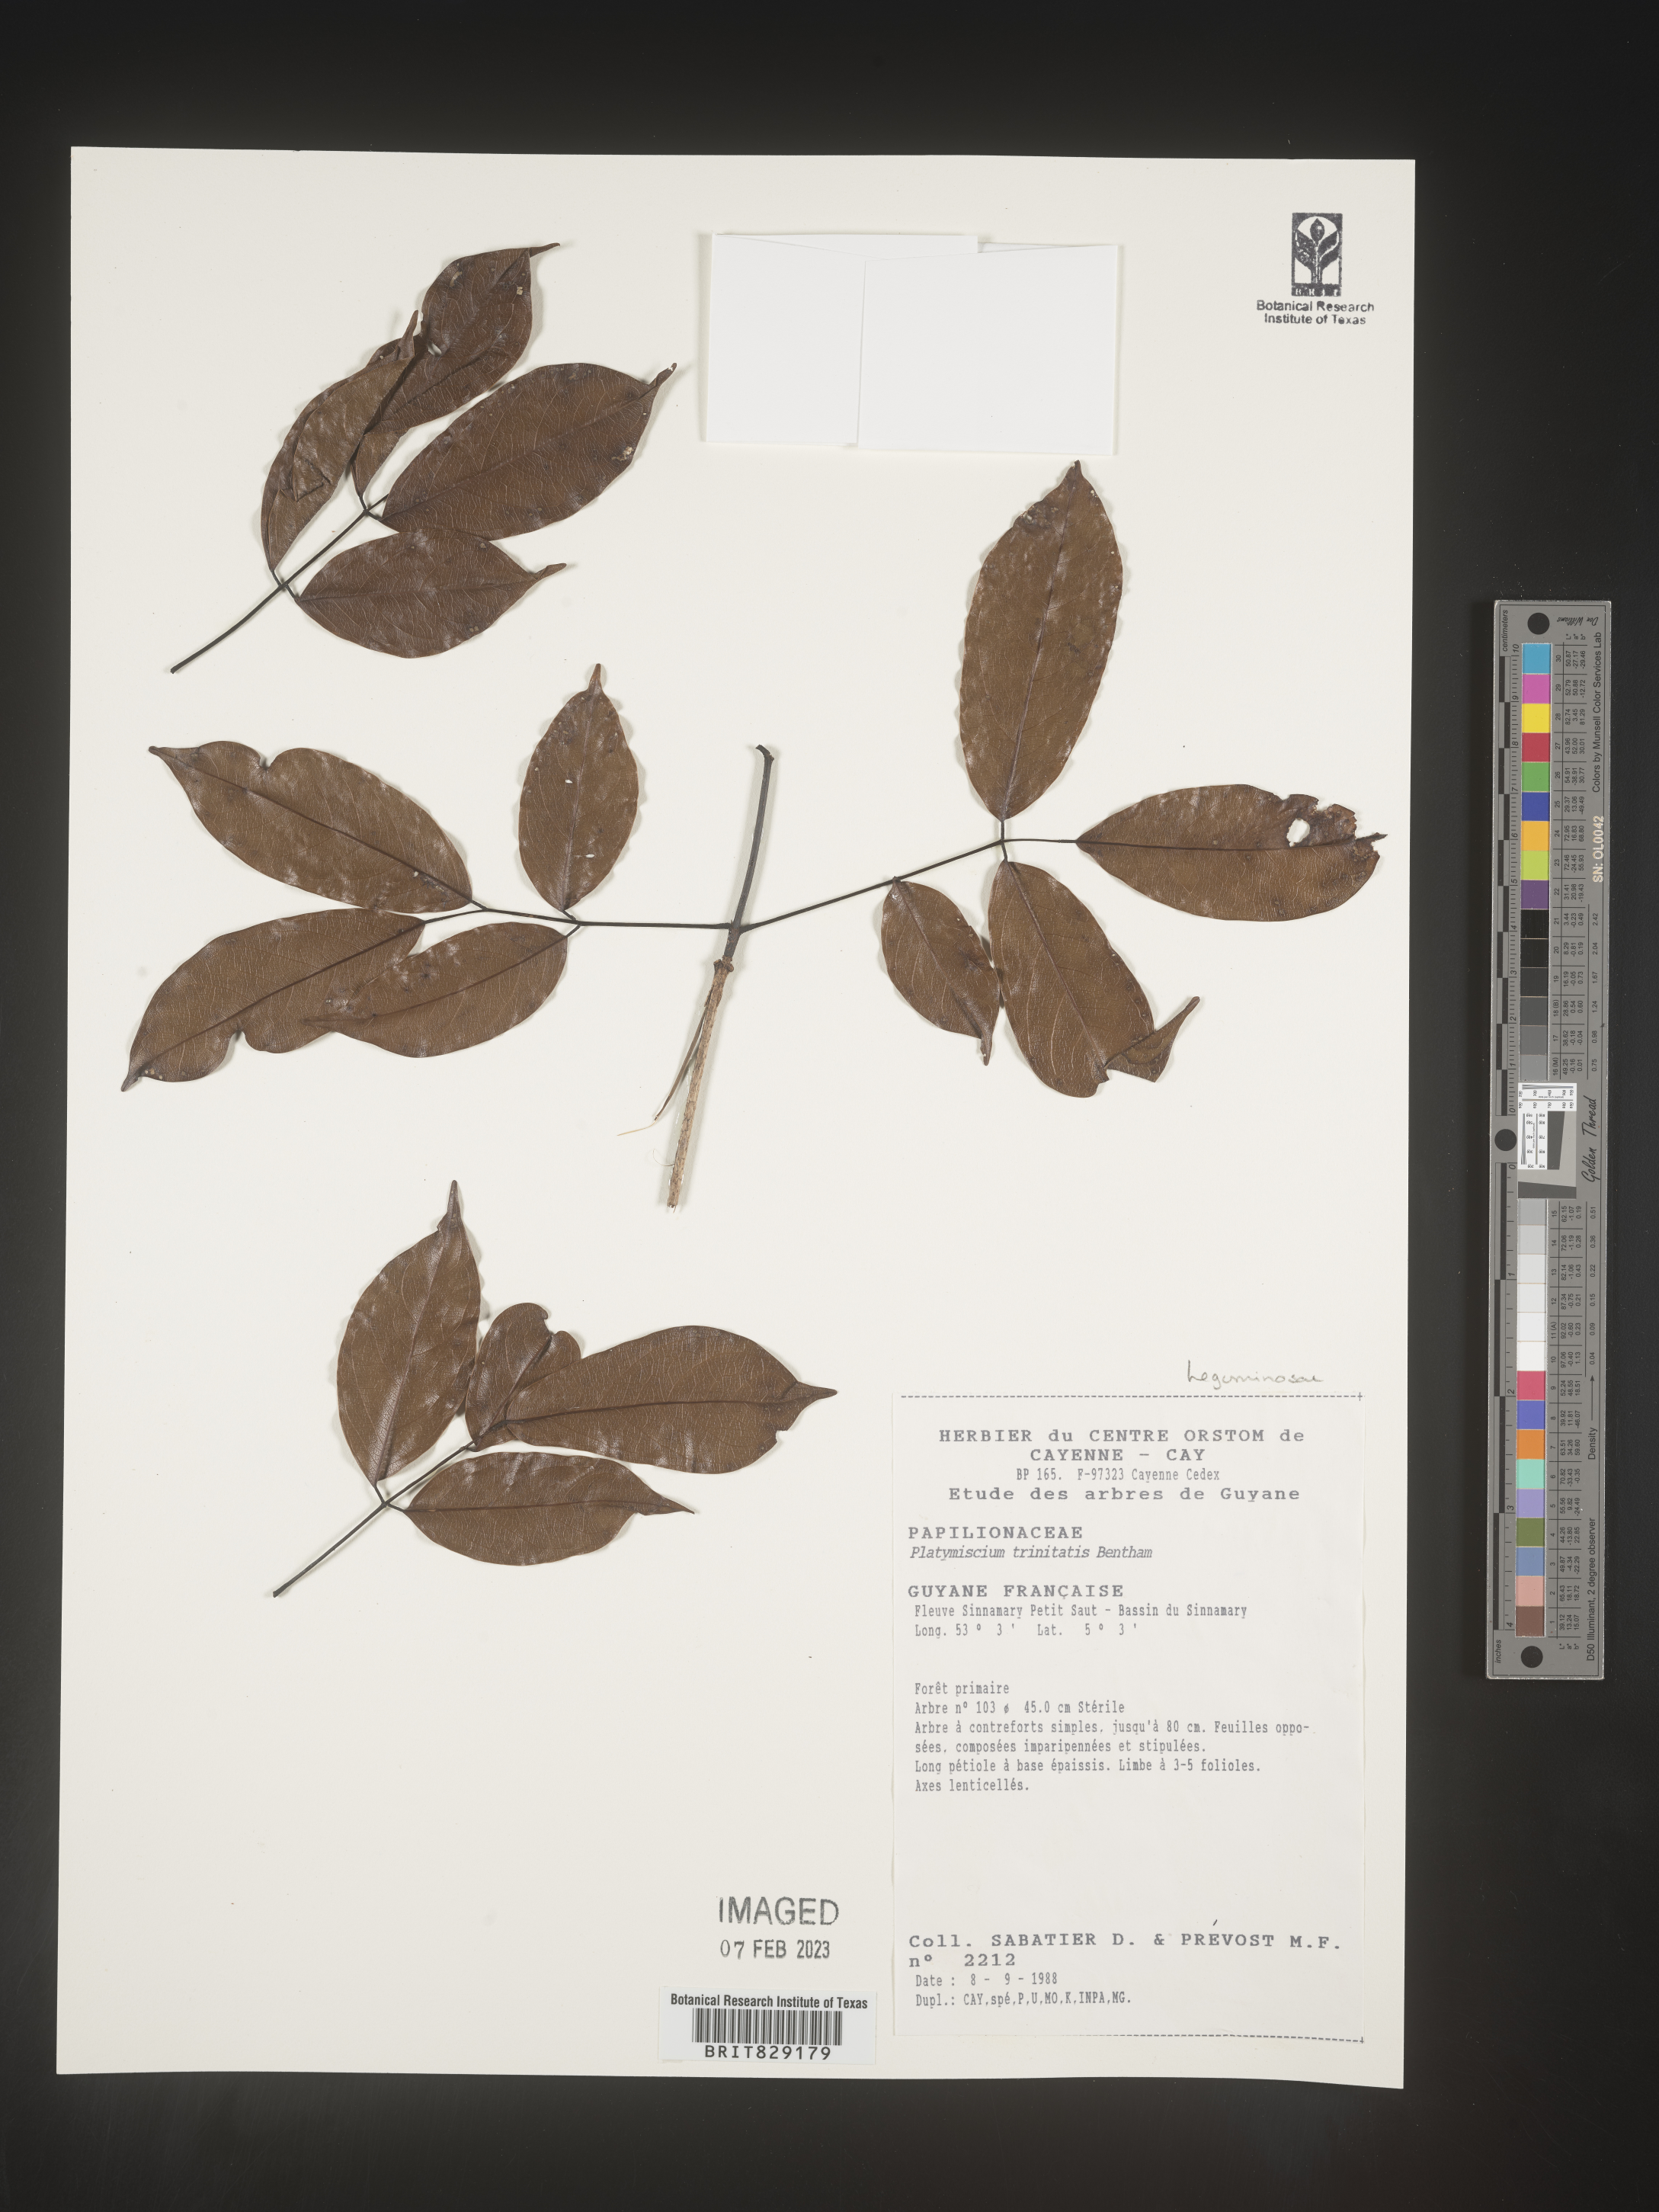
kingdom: Plantae
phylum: Tracheophyta
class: Magnoliopsida
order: Fabales
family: Fabaceae
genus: Platymiscium
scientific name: Platymiscium
